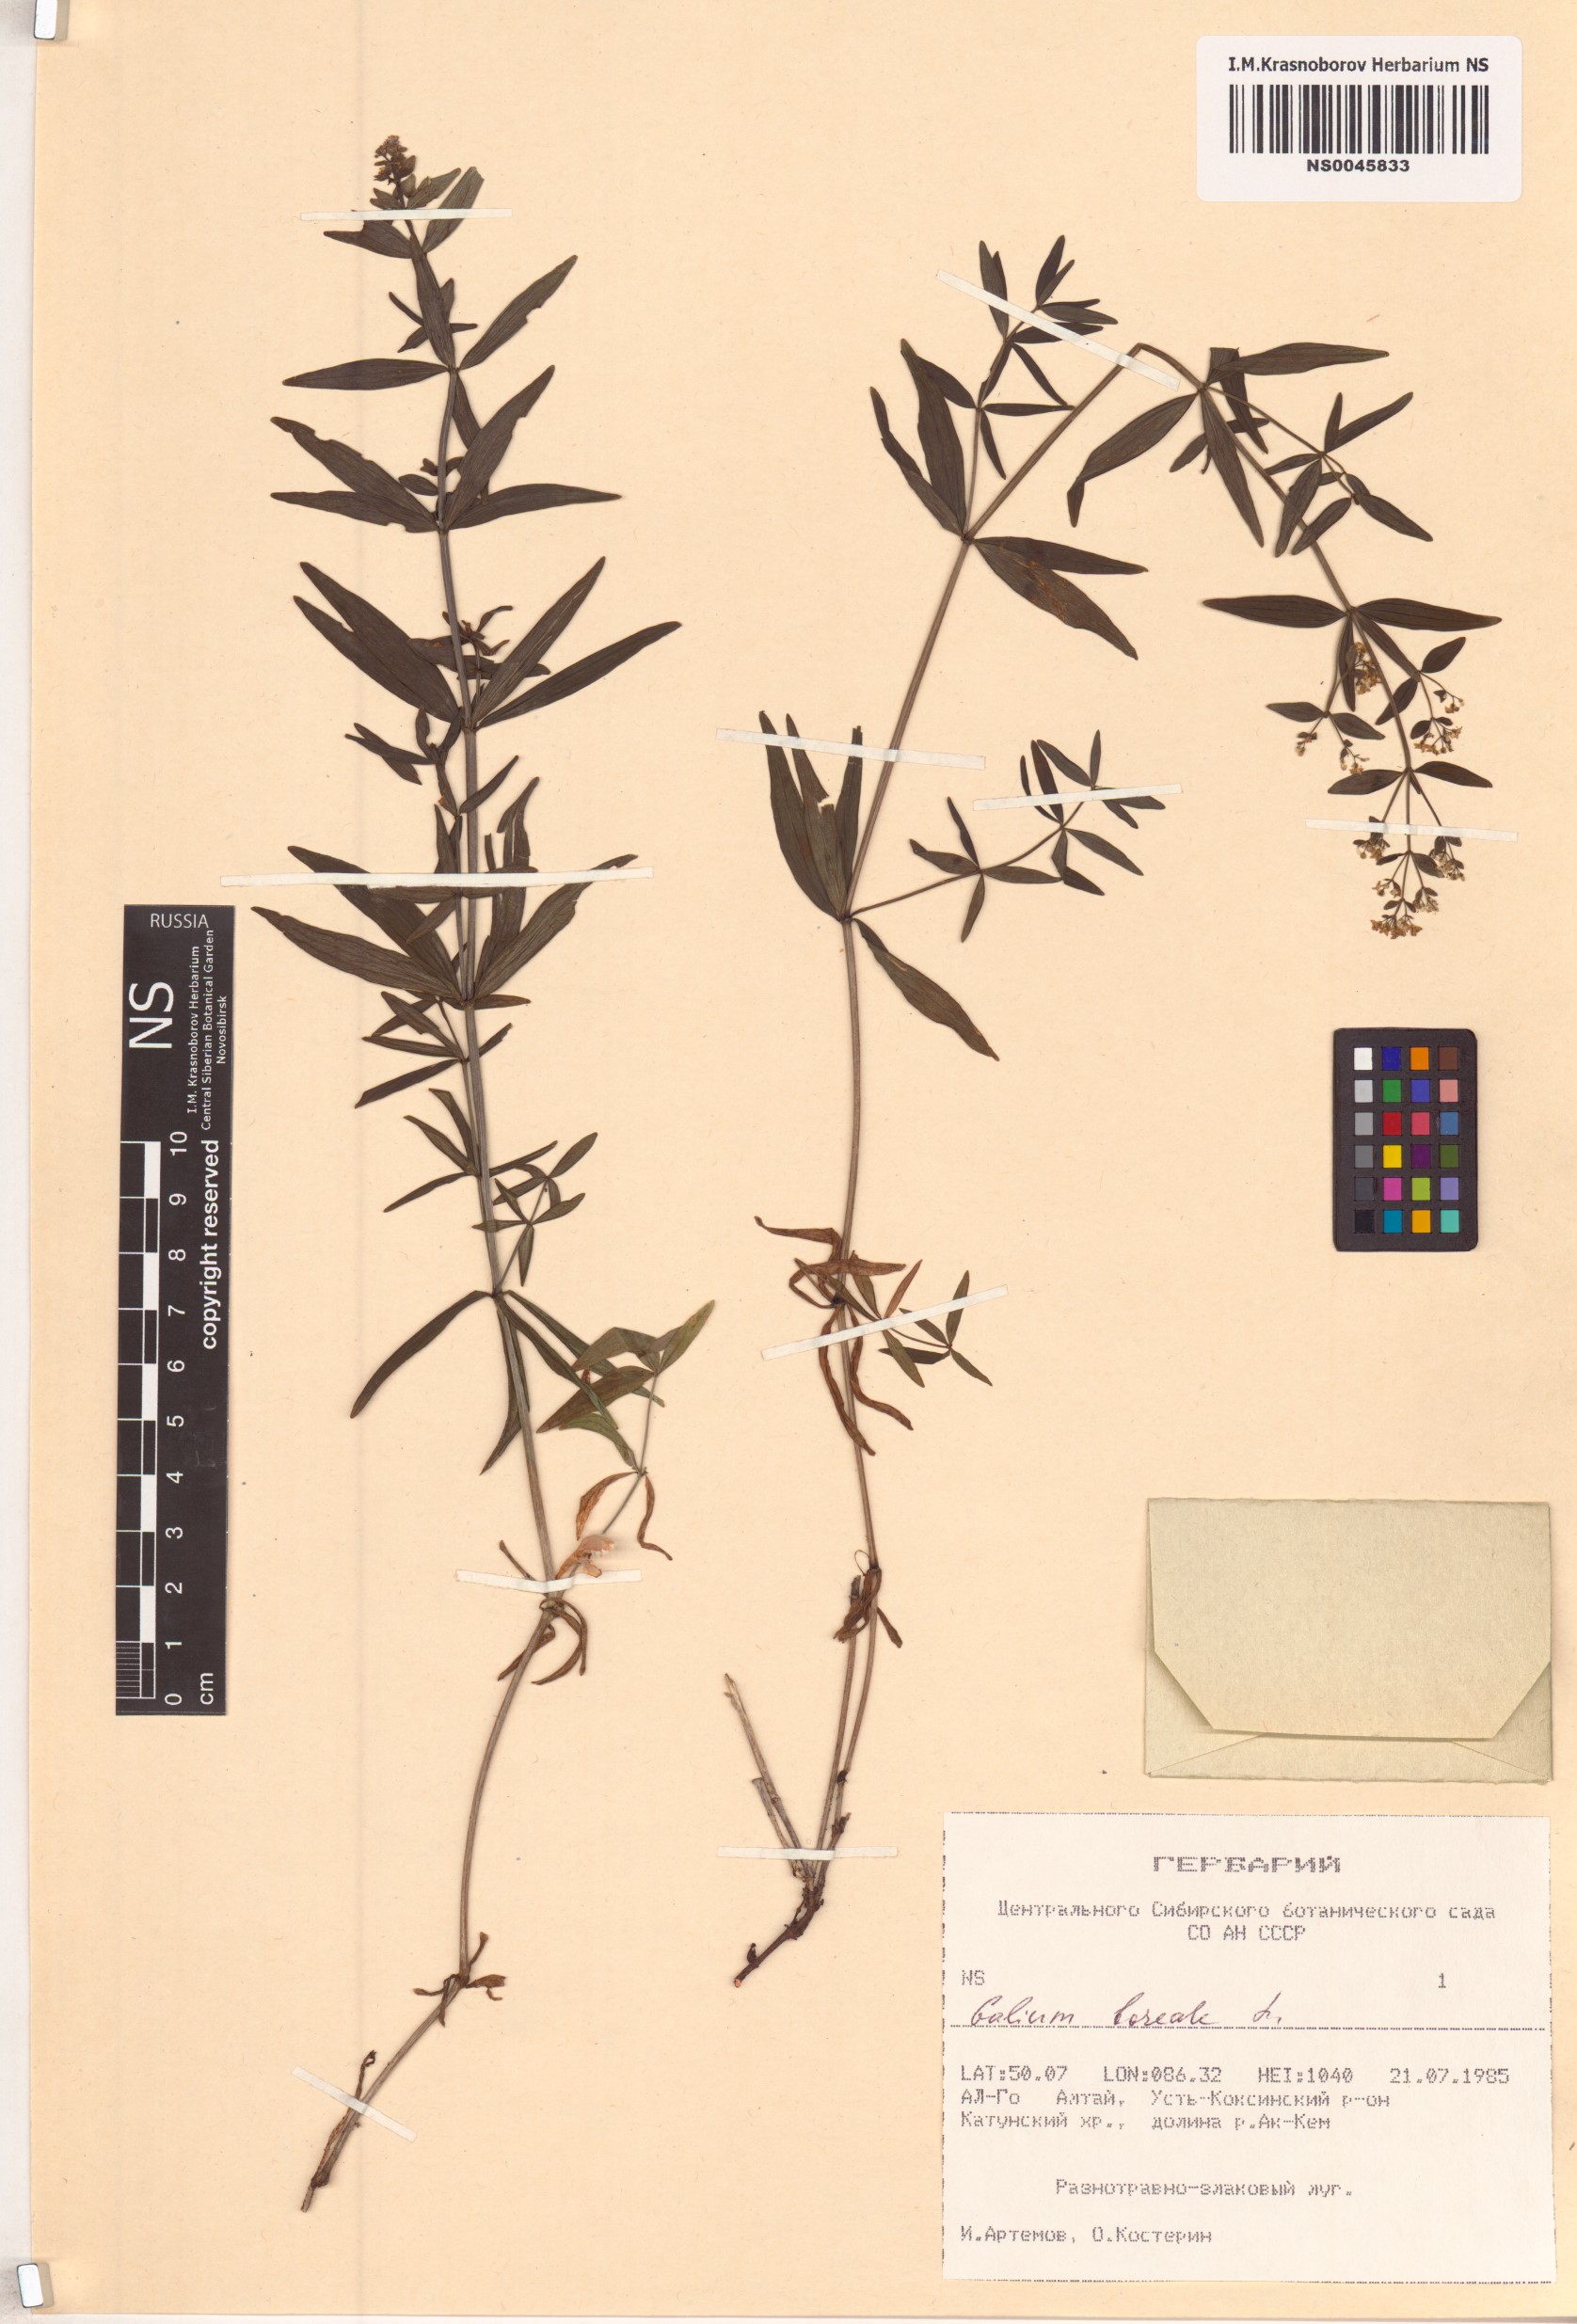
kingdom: Plantae
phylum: Tracheophyta
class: Magnoliopsida
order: Gentianales
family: Rubiaceae
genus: Galium
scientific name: Galium boreale
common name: Northern bedstraw
